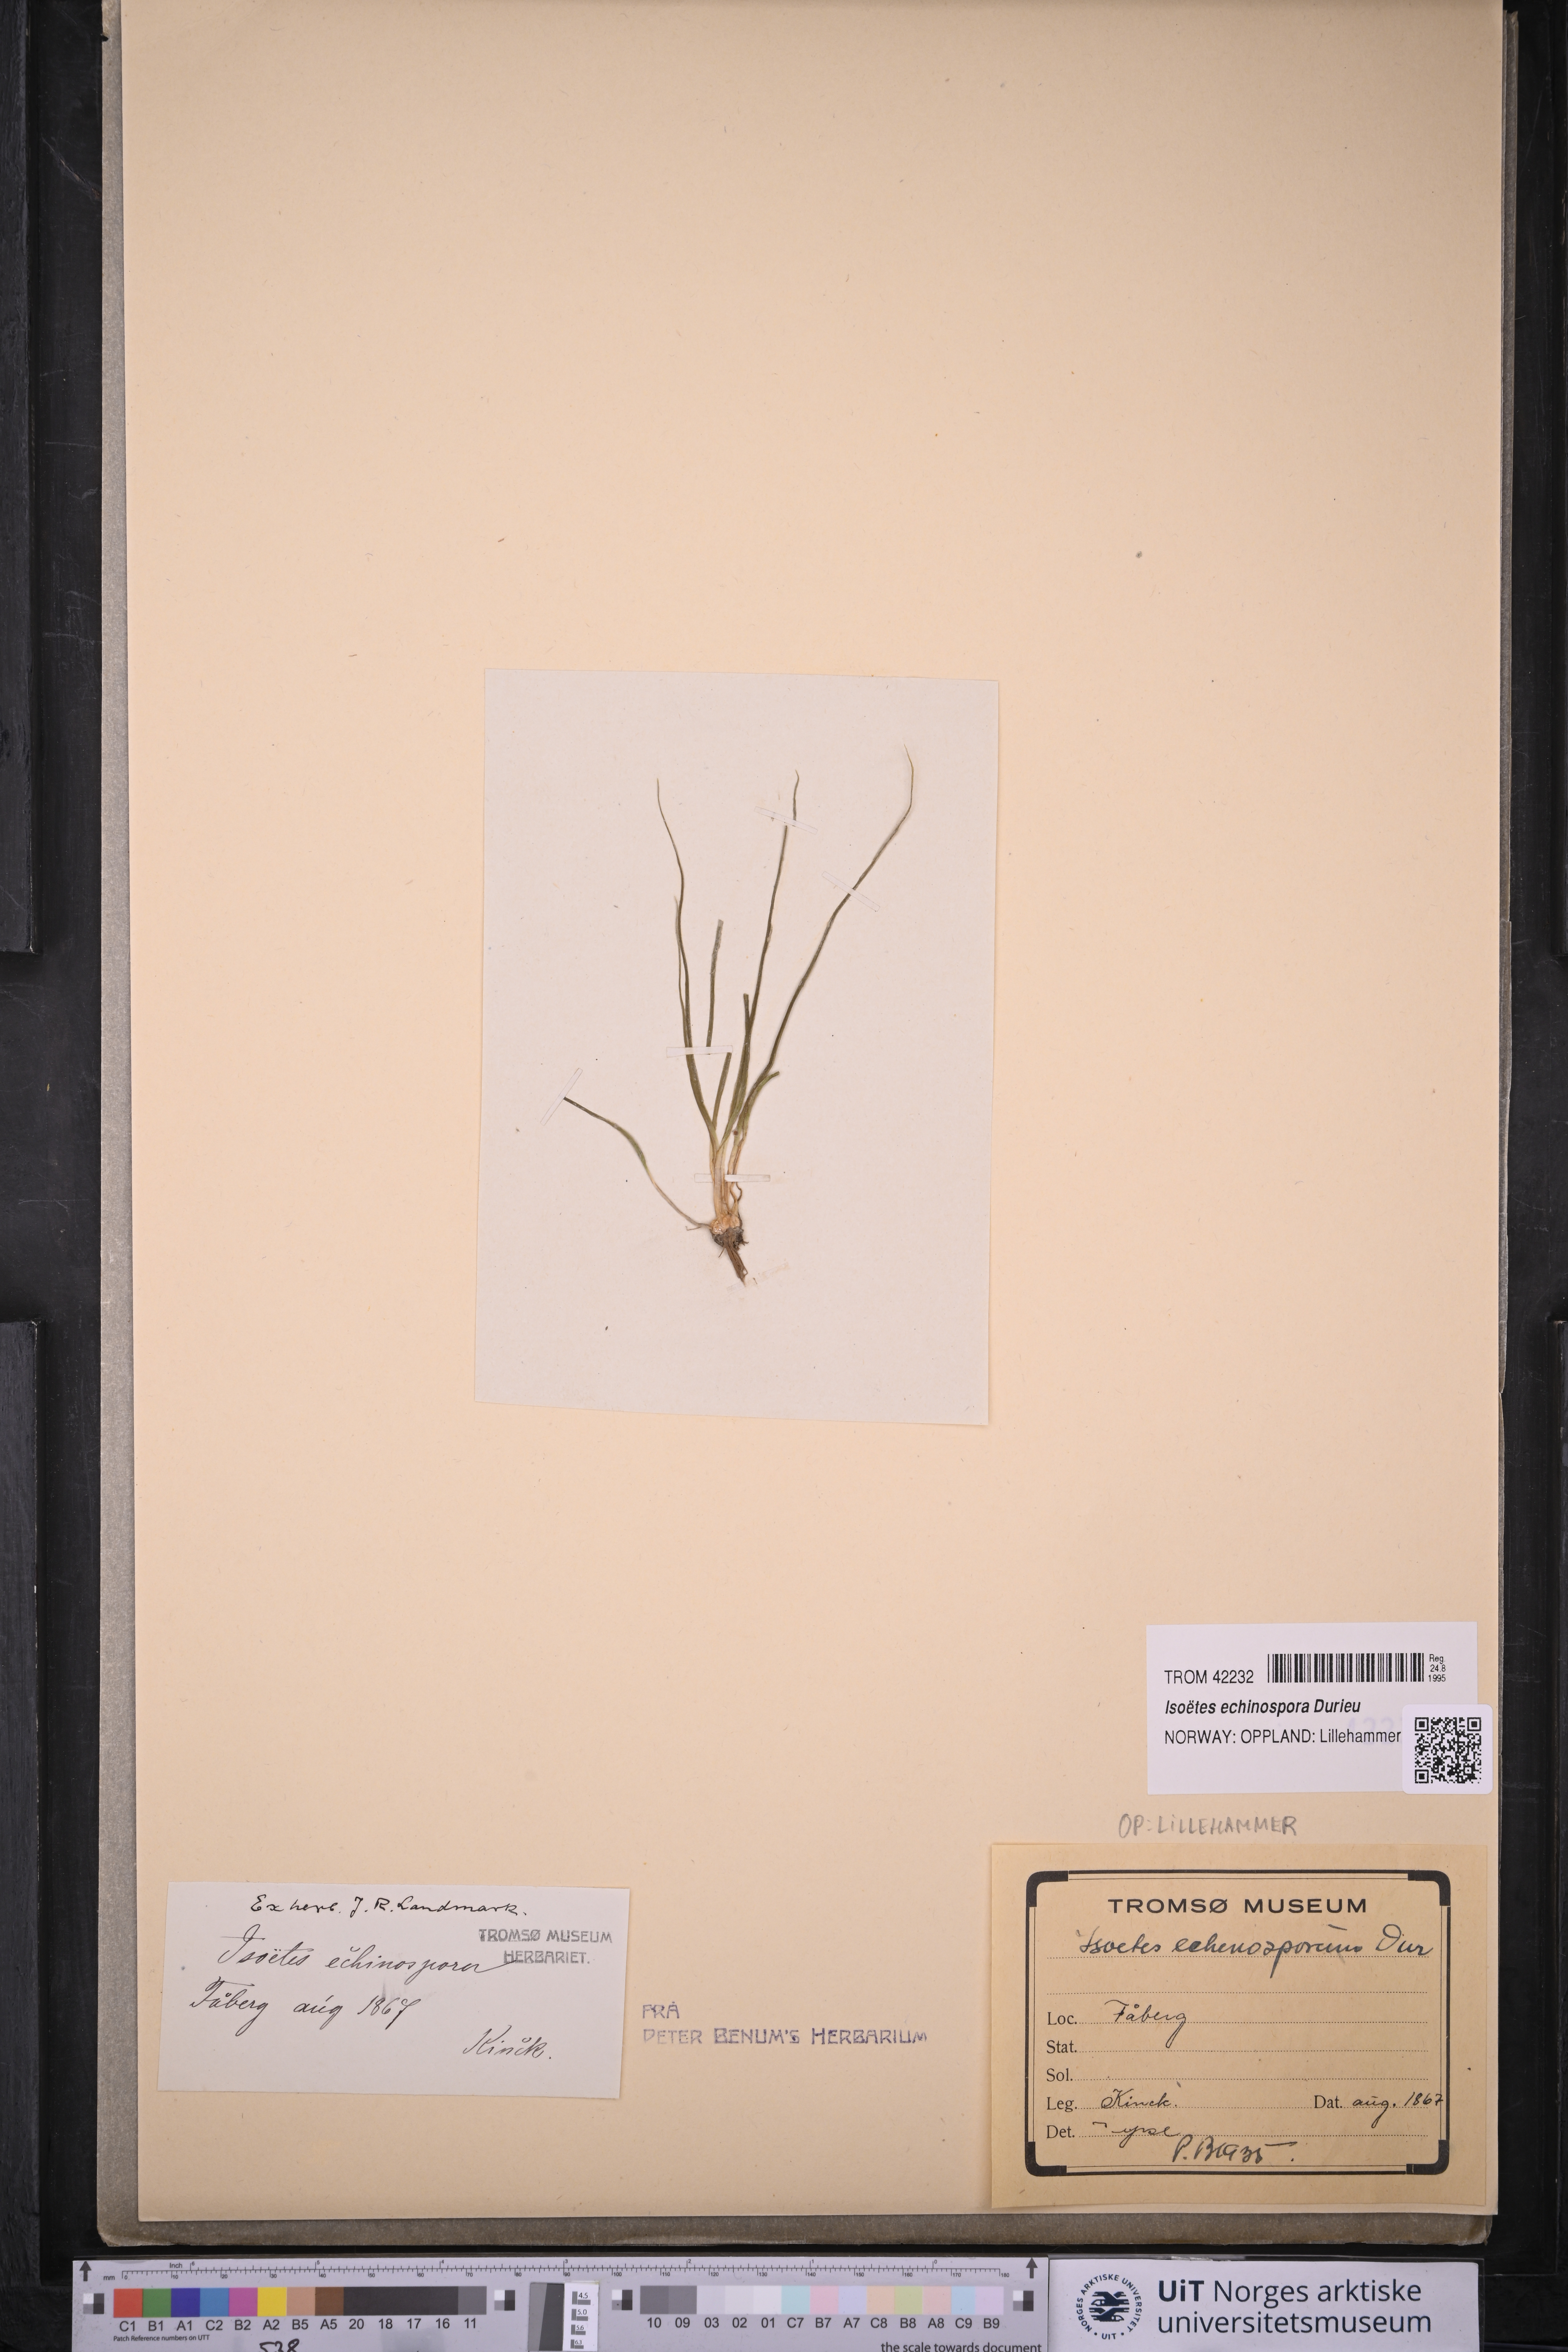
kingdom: Plantae
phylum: Tracheophyta
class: Lycopodiopsida
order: Isoetales
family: Isoetaceae
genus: Isoetes
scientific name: Isoetes echinospora
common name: Spring quillwort
